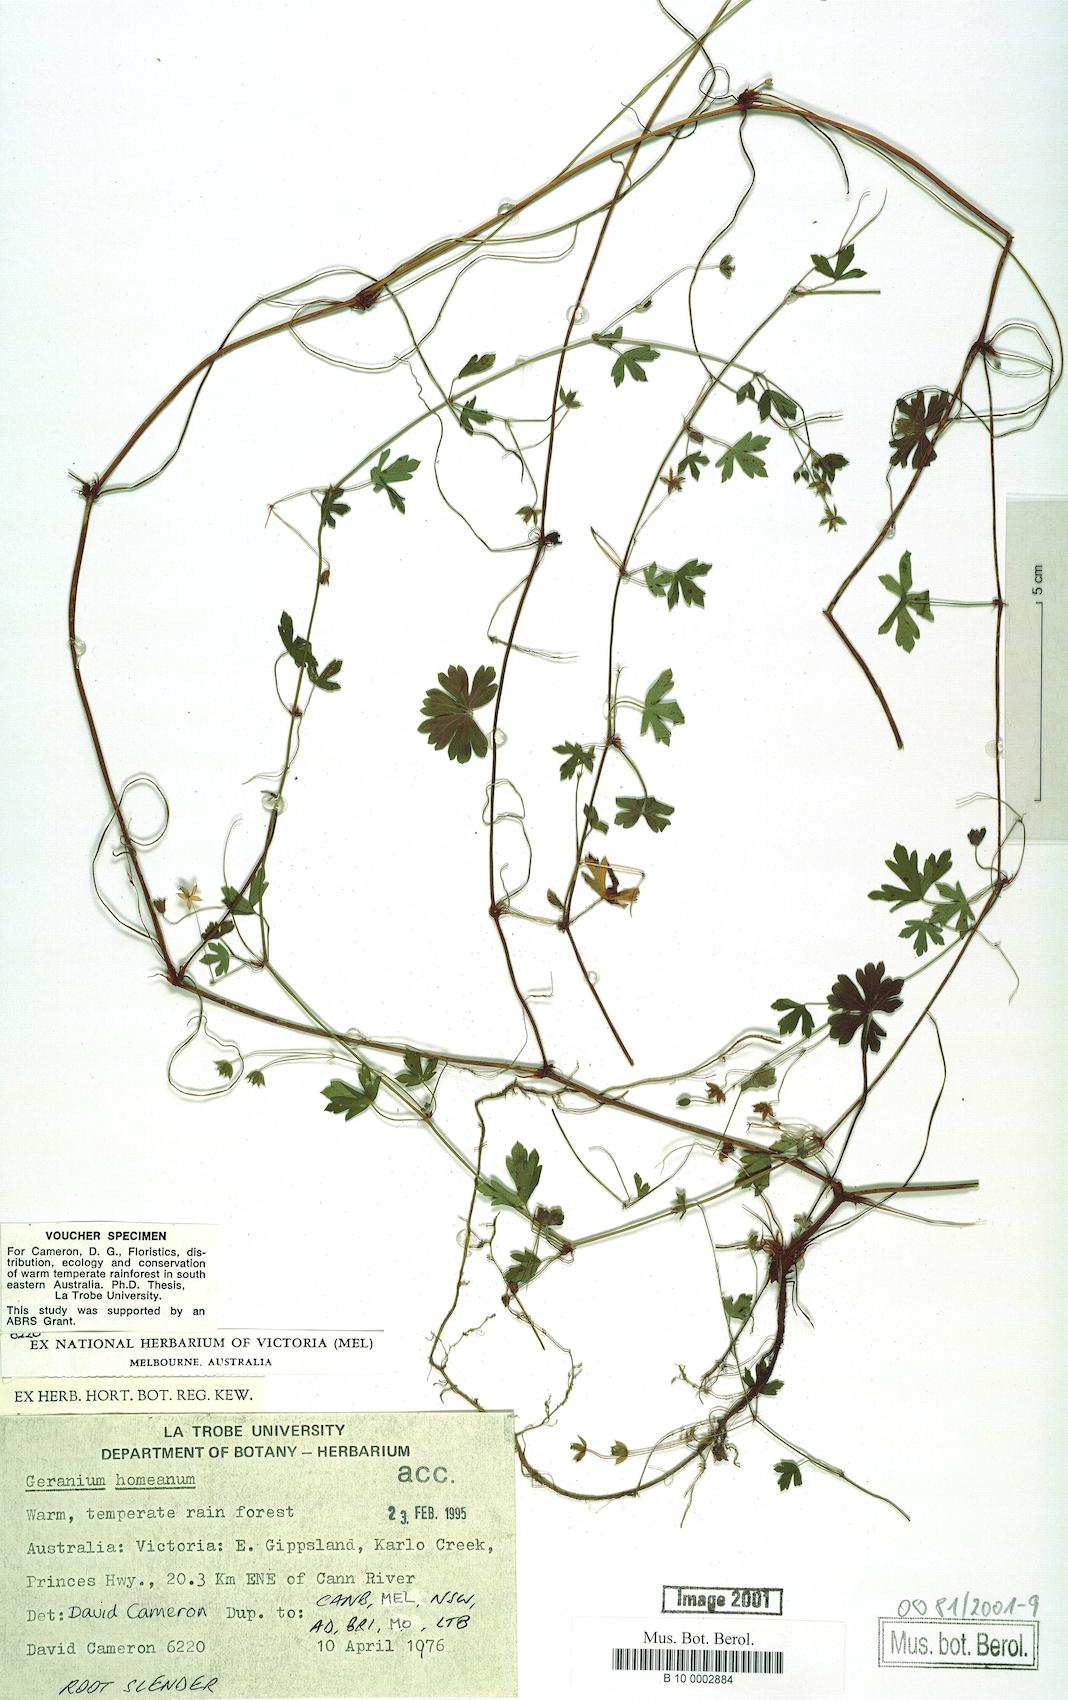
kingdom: Plantae
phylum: Tracheophyta
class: Magnoliopsida
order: Geraniales
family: Geraniaceae
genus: Geranium
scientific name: Geranium homeanum
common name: Australasian geranium
